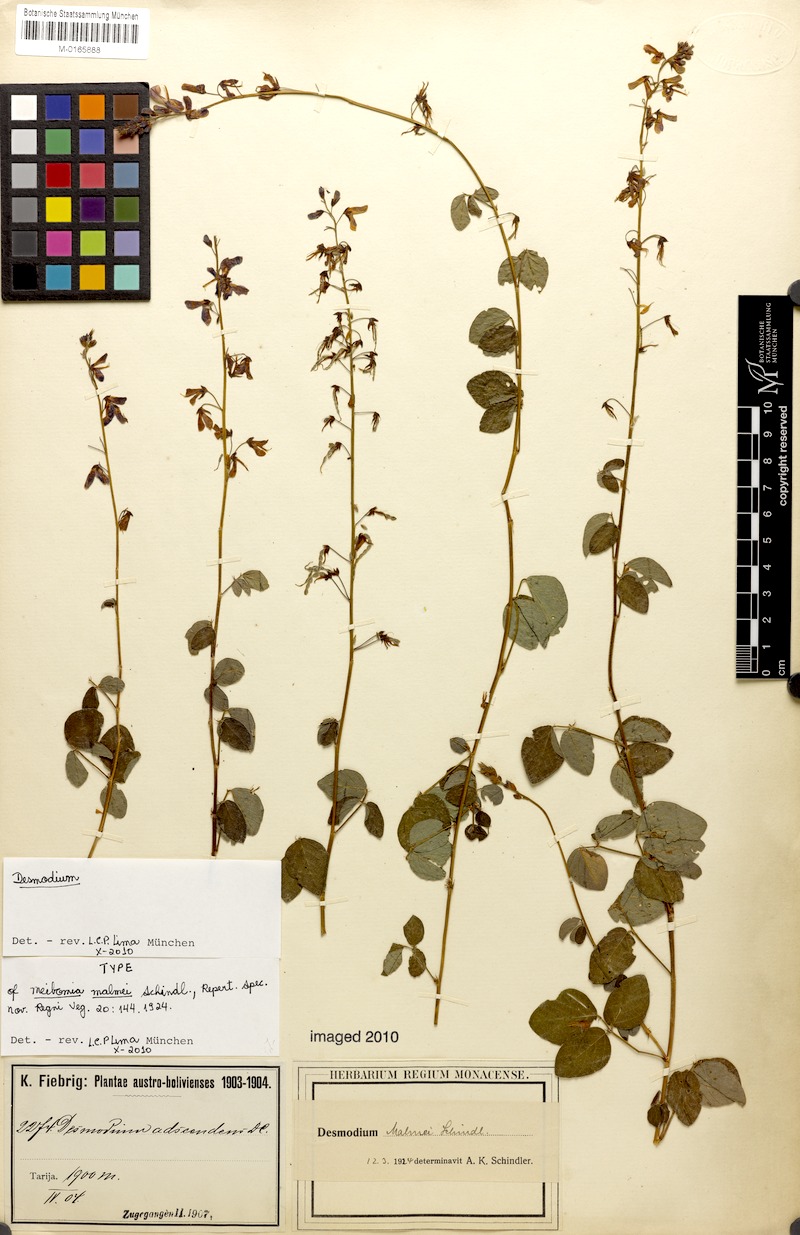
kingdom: Plantae
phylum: Tracheophyta
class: Magnoliopsida
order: Fabales
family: Fabaceae
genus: Desmodium
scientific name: Desmodium subsericeum
